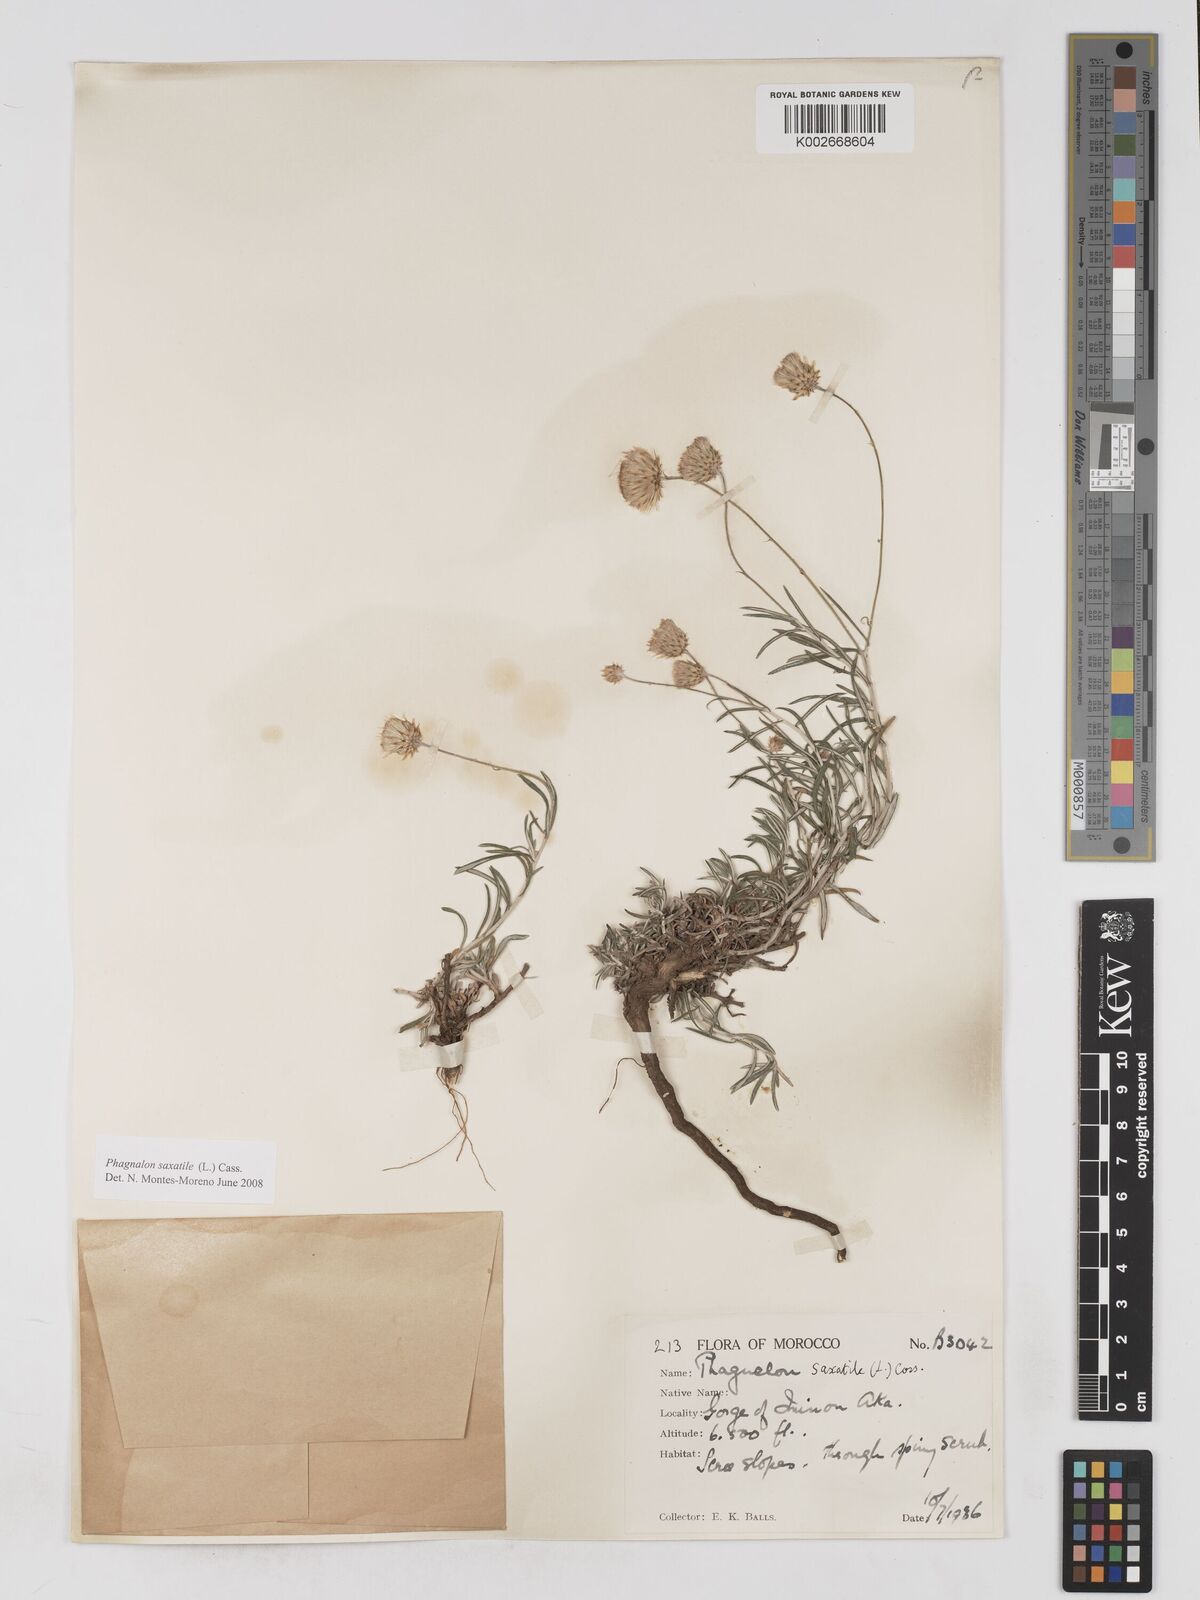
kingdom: Plantae
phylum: Tracheophyta
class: Magnoliopsida
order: Asterales
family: Asteraceae
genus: Phagnalon
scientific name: Phagnalon saxatile
